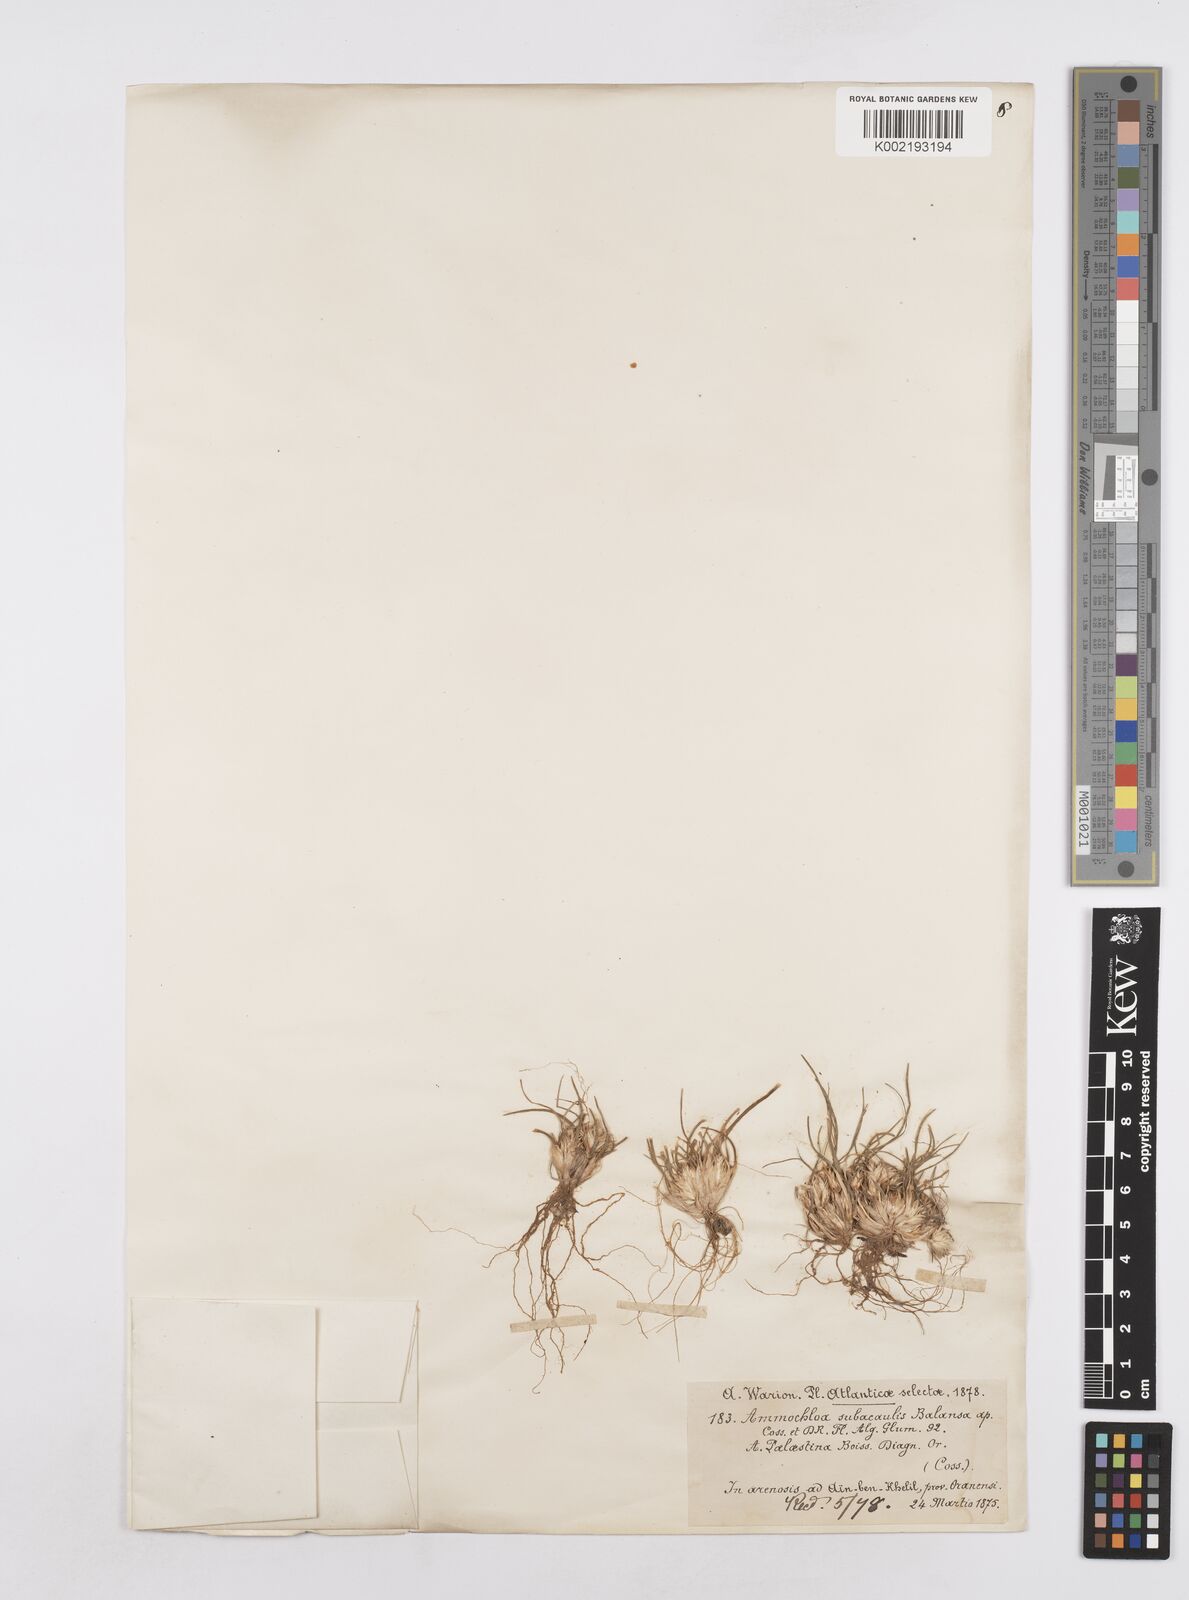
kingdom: Plantae
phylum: Tracheophyta
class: Liliopsida
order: Poales
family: Poaceae
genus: Ammochloa
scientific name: Ammochloa palaestina
